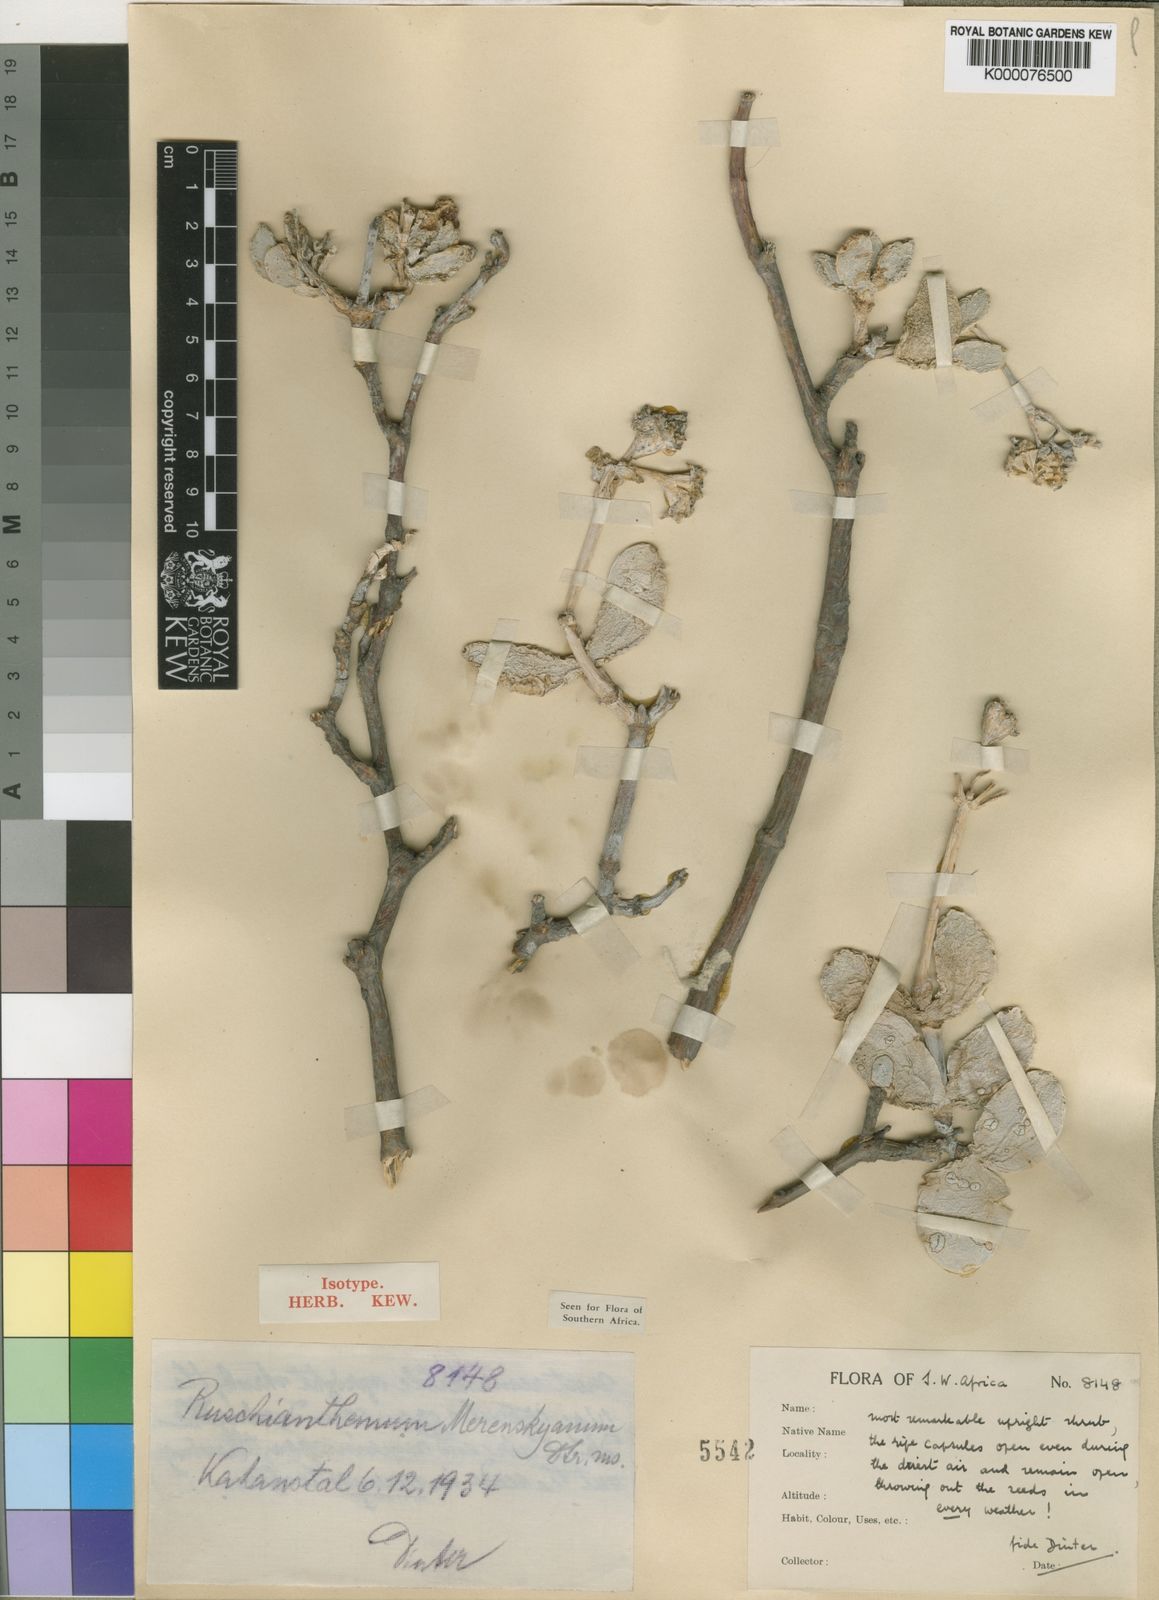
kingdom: Plantae
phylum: Tracheophyta
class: Magnoliopsida
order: Caryophyllales
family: Aizoaceae
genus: Stoeberia
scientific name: Stoeberia carpii
